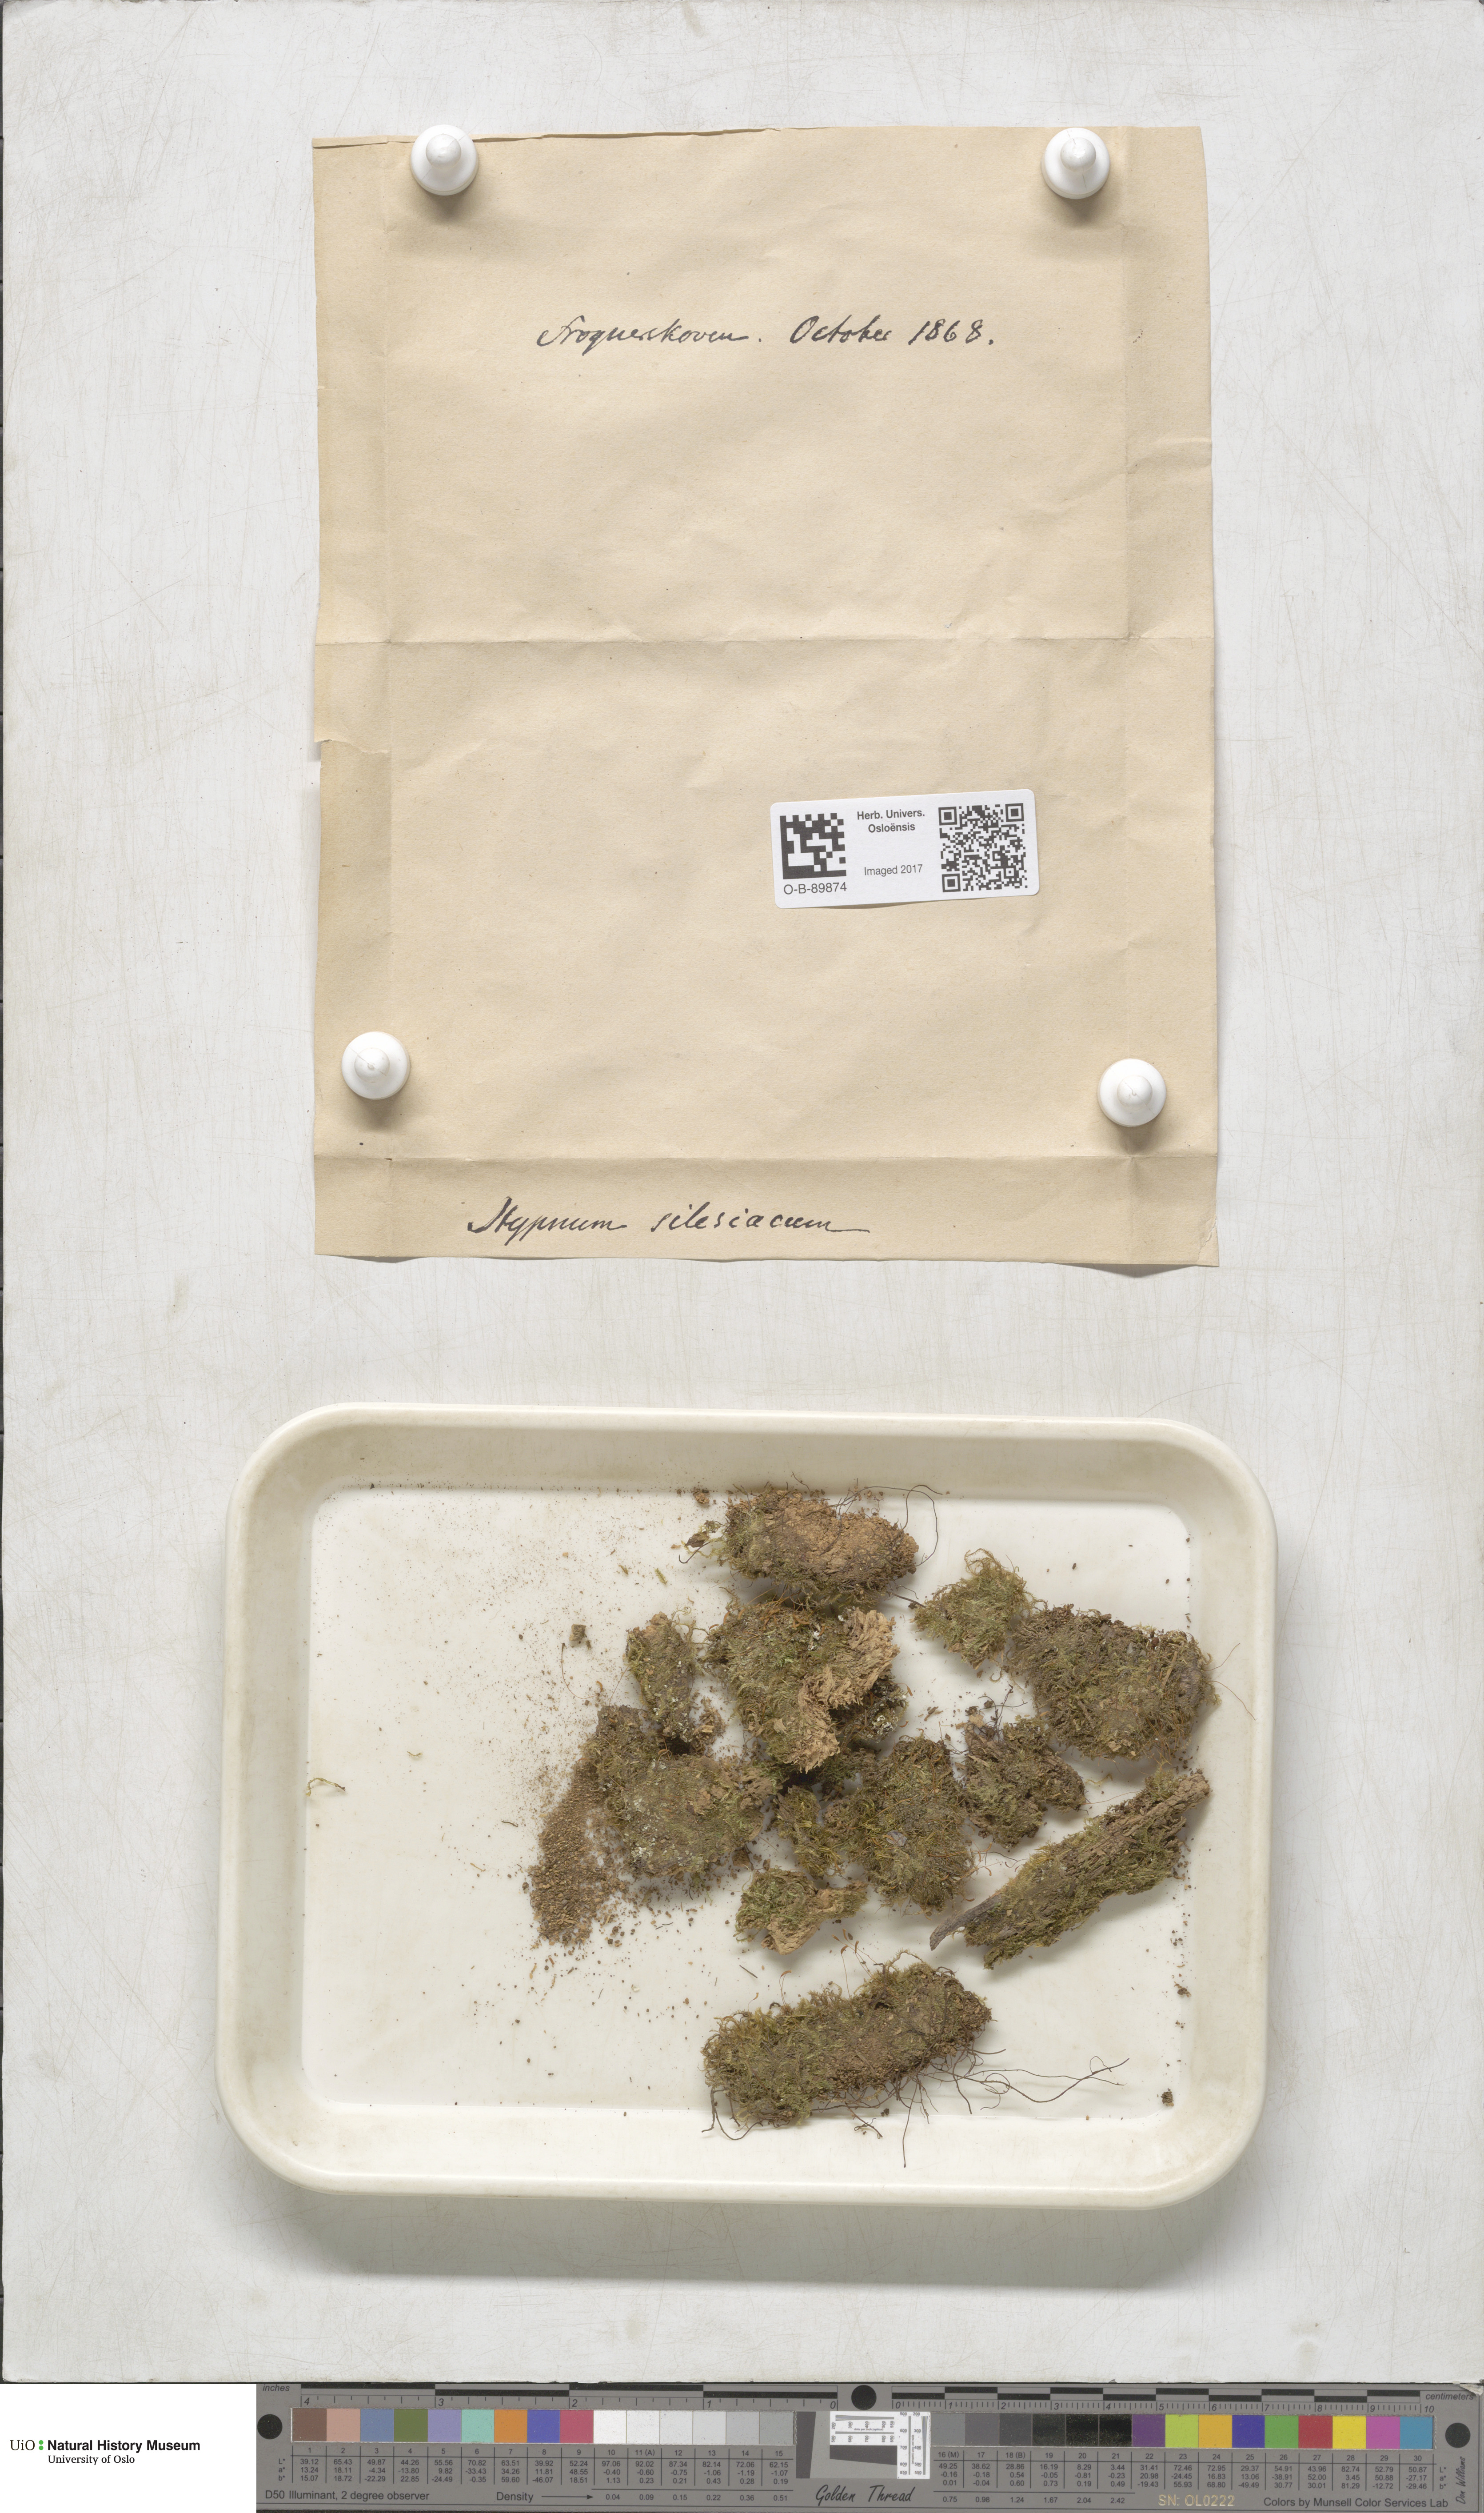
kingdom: Plantae
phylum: Bryophyta
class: Bryopsida
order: Hypnales
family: Plagiotheciaceae
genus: Herzogiella
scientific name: Herzogiella seligeri
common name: Silesian feather-moss
